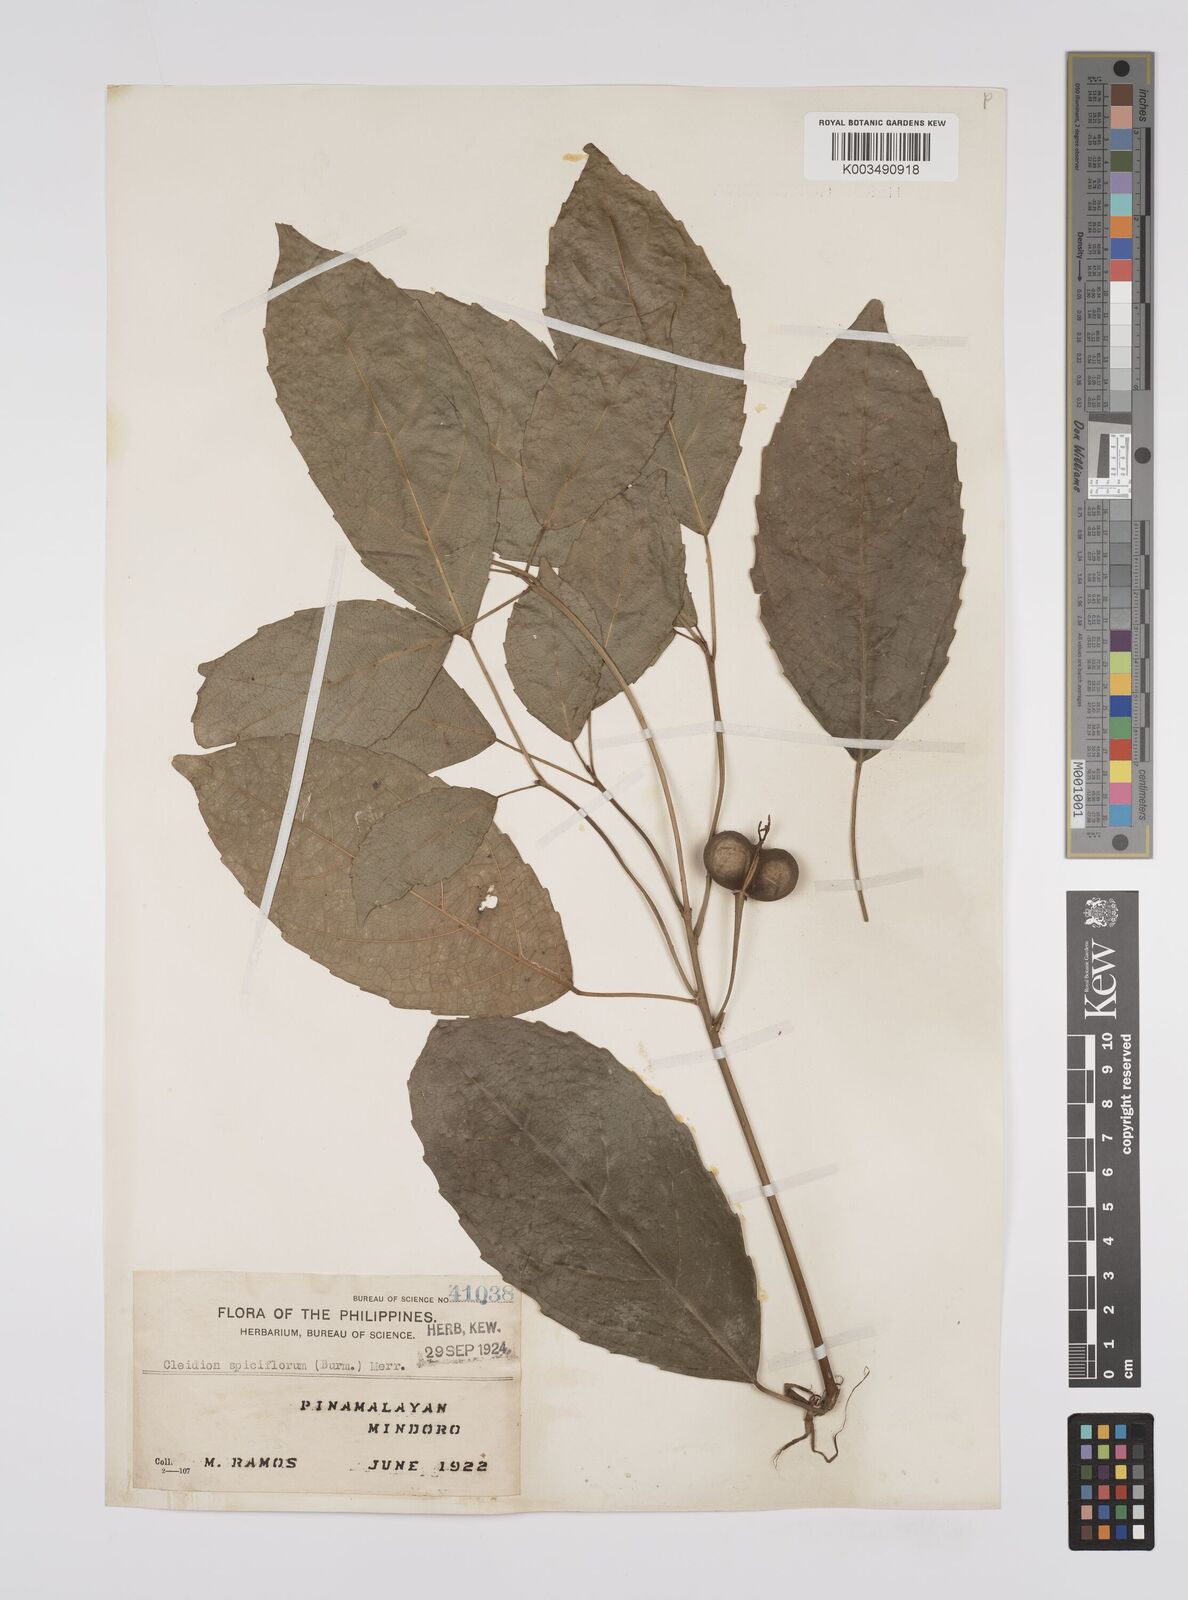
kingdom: Plantae
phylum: Tracheophyta
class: Magnoliopsida
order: Malpighiales
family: Euphorbiaceae
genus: Cleidion
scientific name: Cleidion javanicum
